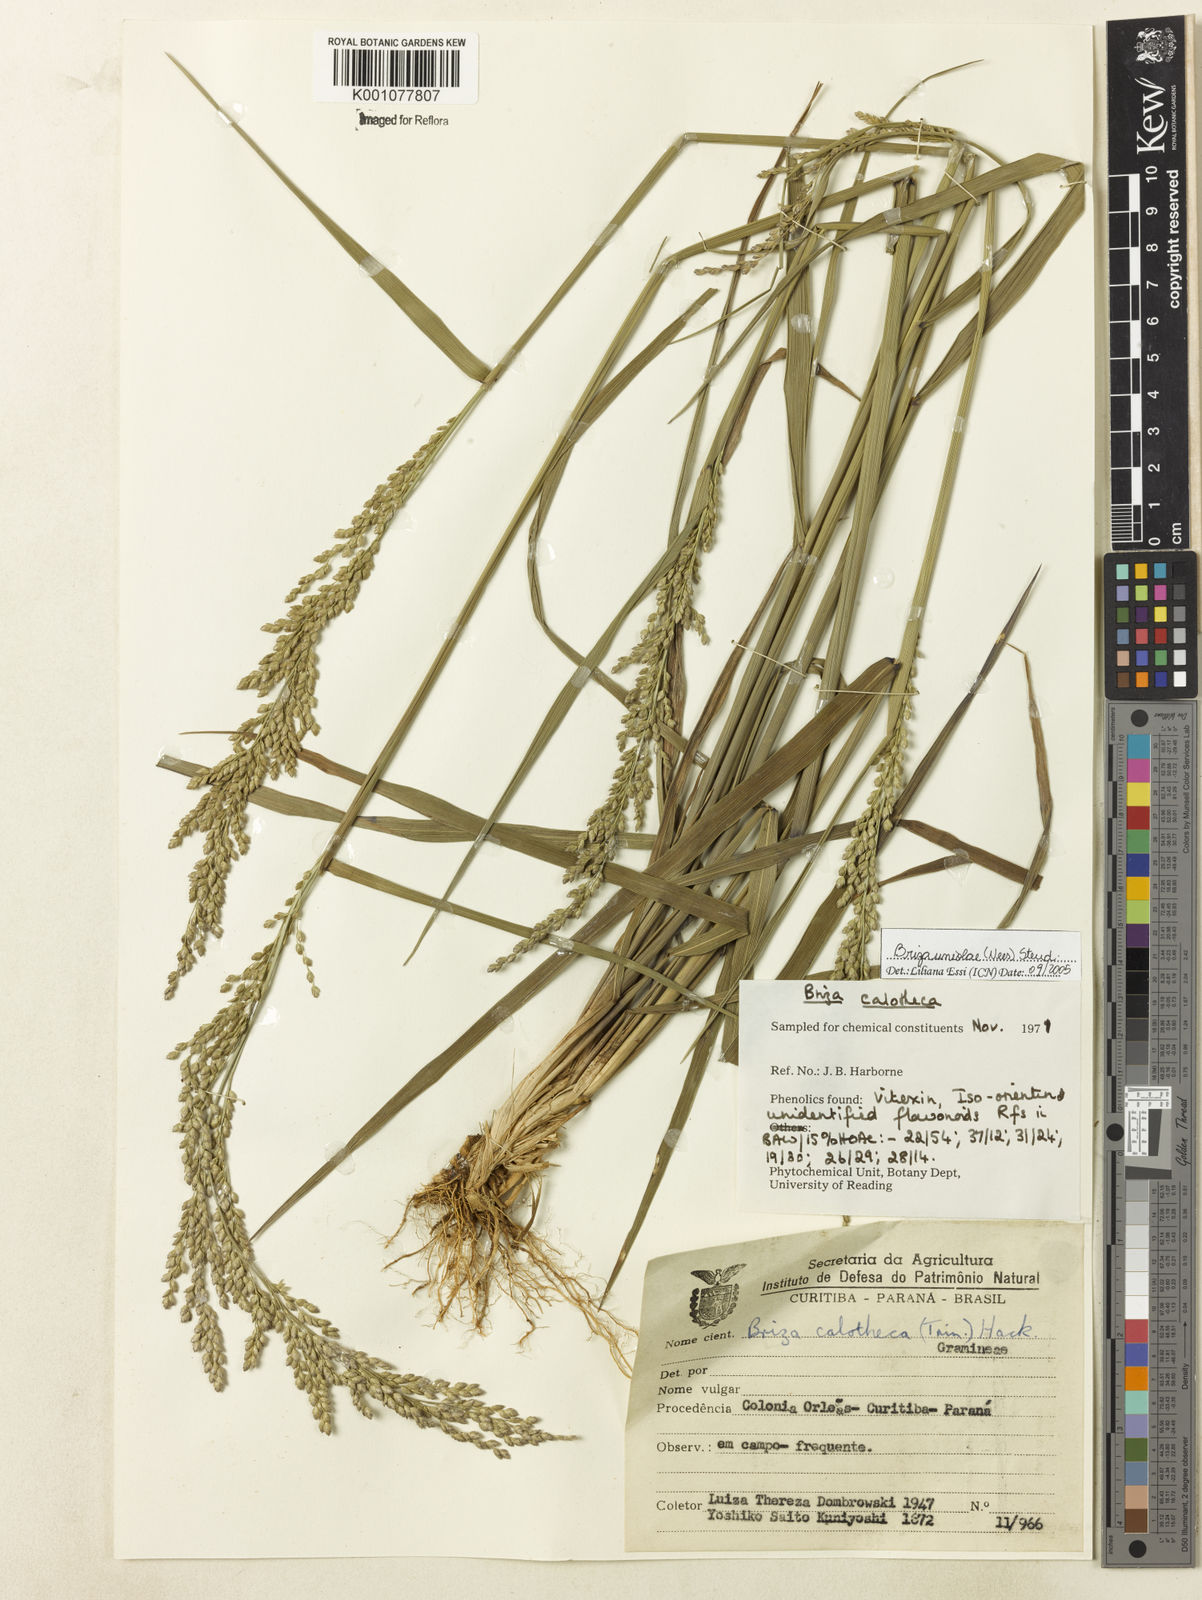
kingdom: Plantae
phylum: Tracheophyta
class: Liliopsida
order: Poales
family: Poaceae
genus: Poidium
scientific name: Poidium uniolae
